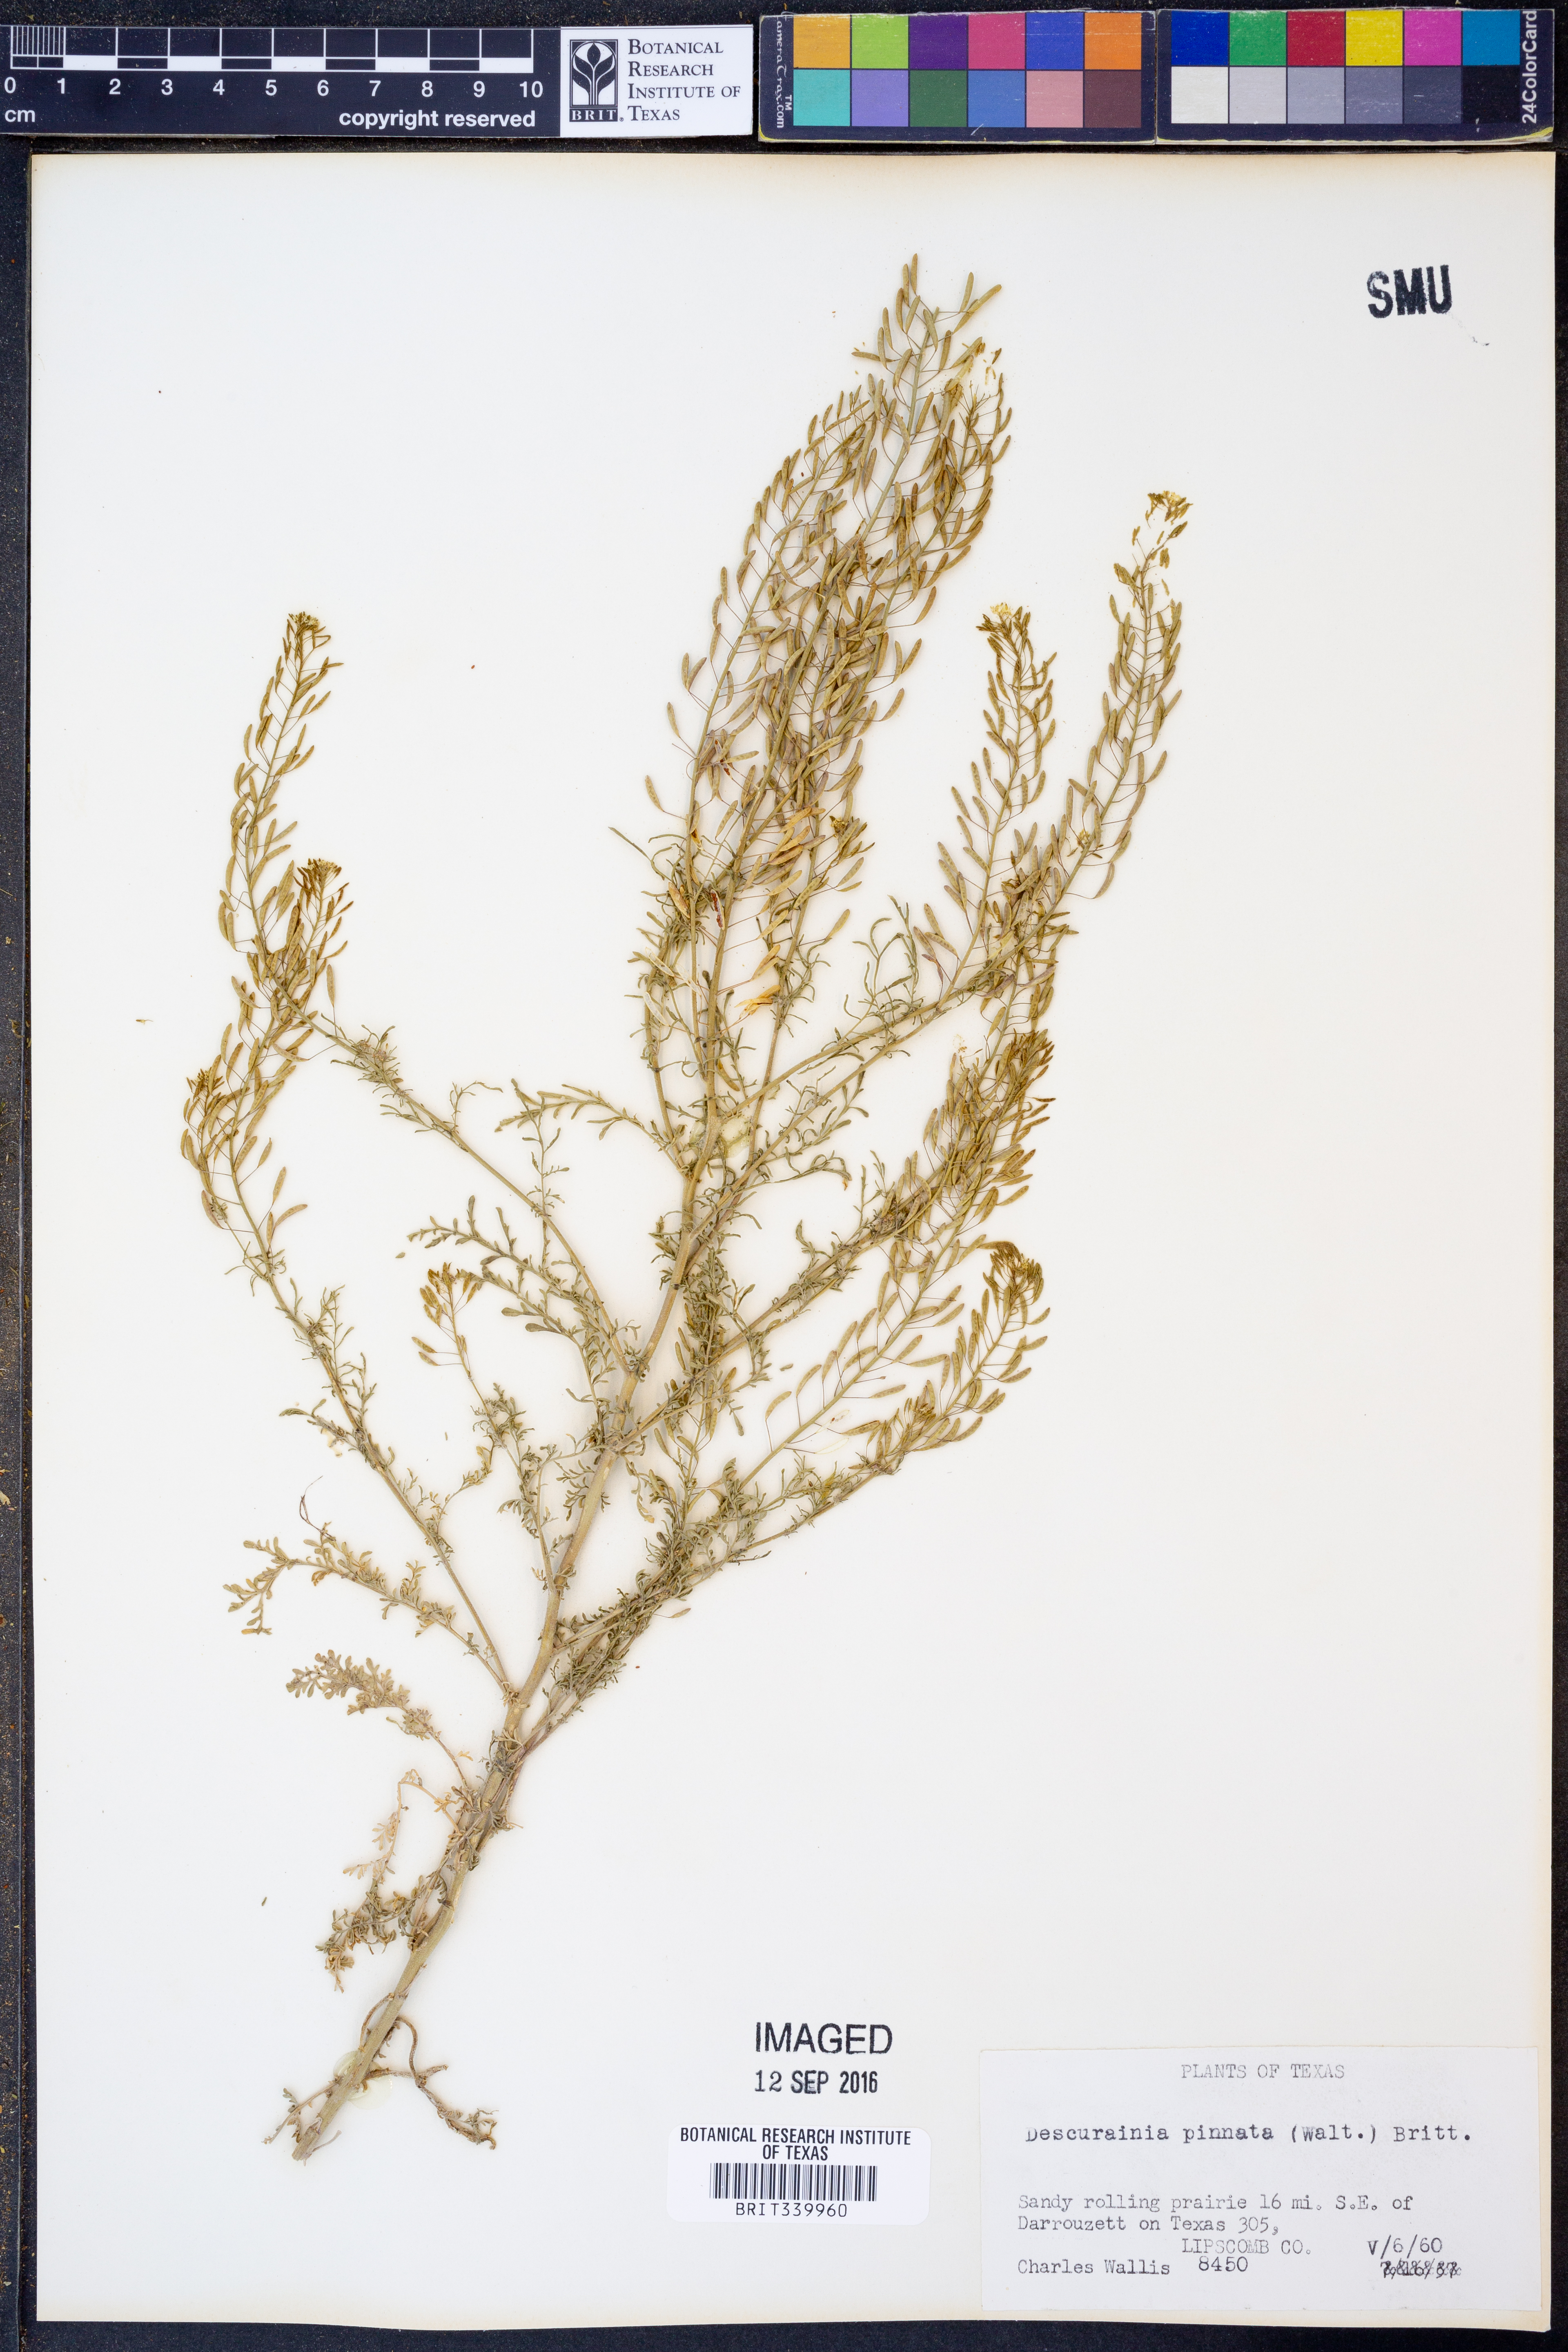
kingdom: Plantae
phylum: Tracheophyta
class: Magnoliopsida
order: Brassicales
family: Brassicaceae
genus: Descurainia
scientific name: Descurainia pinnata
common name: Western tansy mustard
